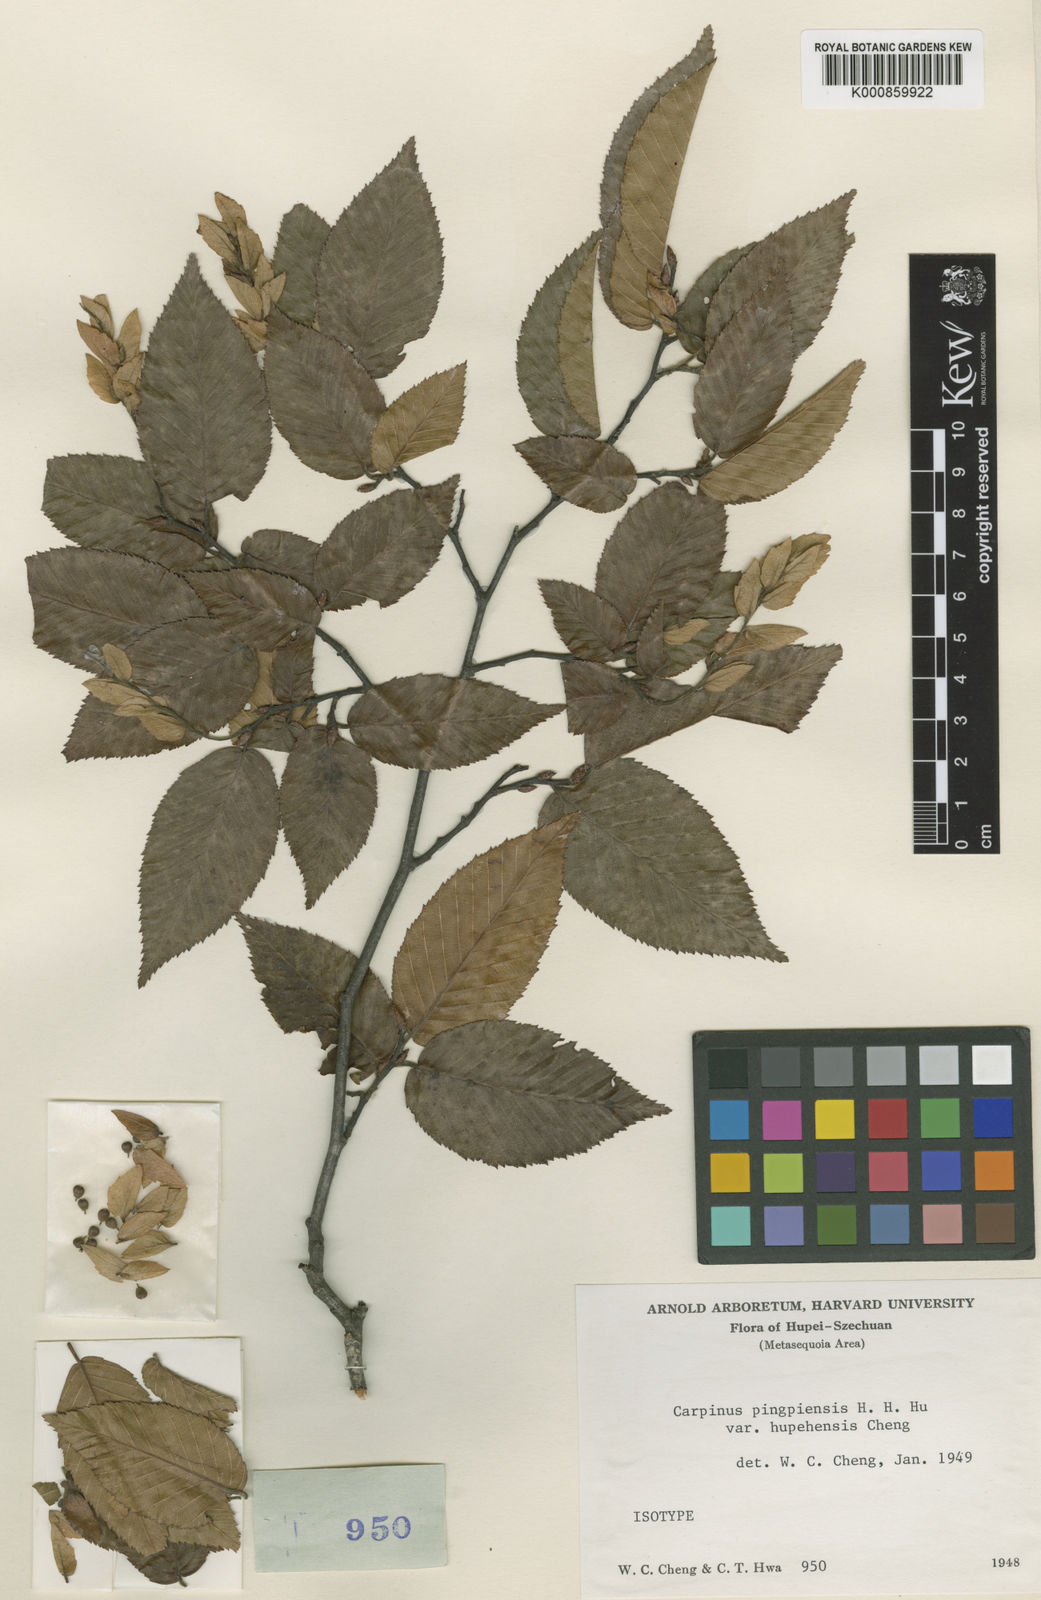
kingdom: Plantae
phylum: Tracheophyta
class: Magnoliopsida
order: Fagales
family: Betulaceae
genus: Carpinus
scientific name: Carpinus pubescens
